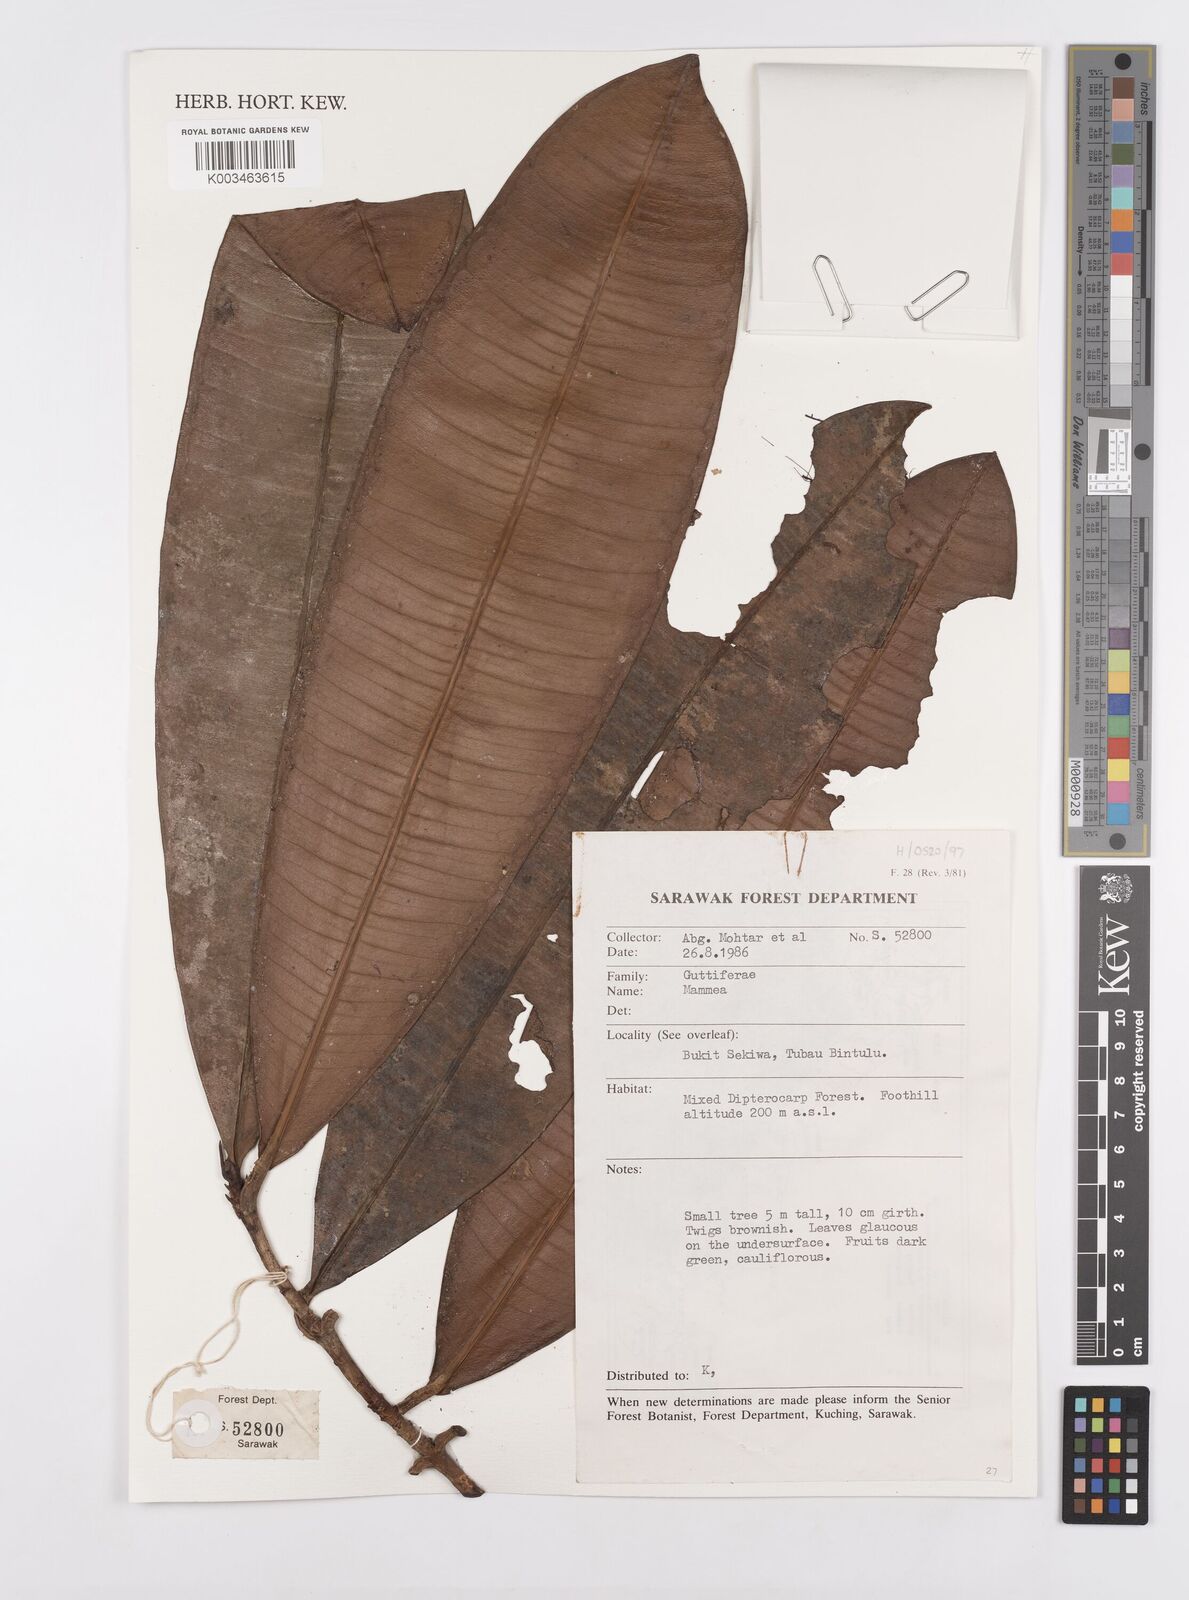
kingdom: Plantae
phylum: Tracheophyta
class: Magnoliopsida
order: Malpighiales
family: Calophyllaceae
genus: Mammea
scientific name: Mammea
